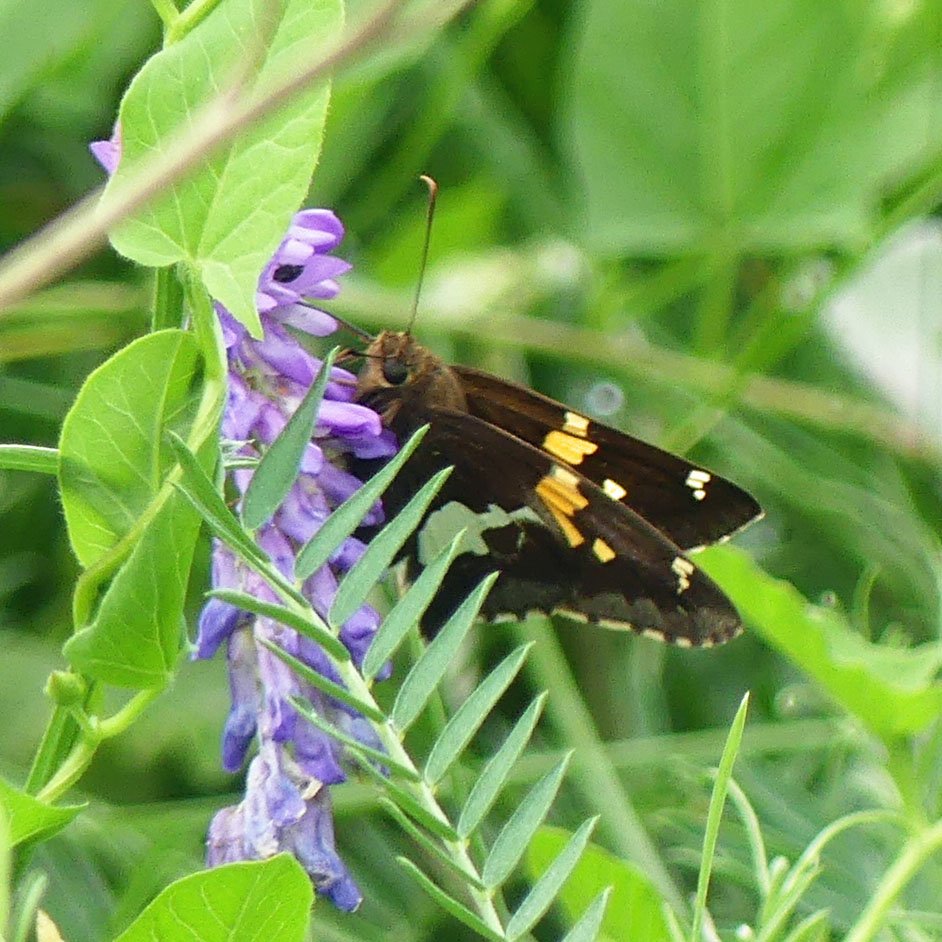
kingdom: Animalia
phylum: Arthropoda
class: Insecta
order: Lepidoptera
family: Hesperiidae
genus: Epargyreus
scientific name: Epargyreus clarus
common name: Silver-spotted Skipper
